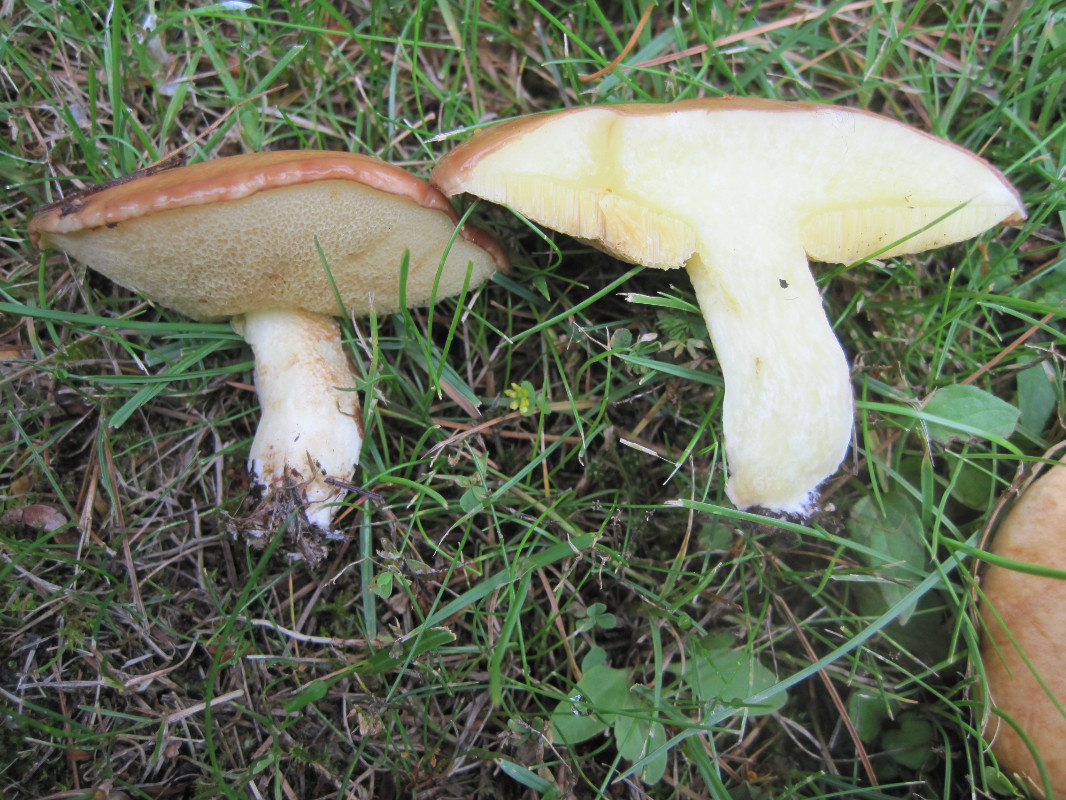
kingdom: Fungi
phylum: Basidiomycota
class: Agaricomycetes
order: Boletales
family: Suillaceae
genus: Suillus
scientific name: Suillus granulatus
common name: kornet slimrørhat
